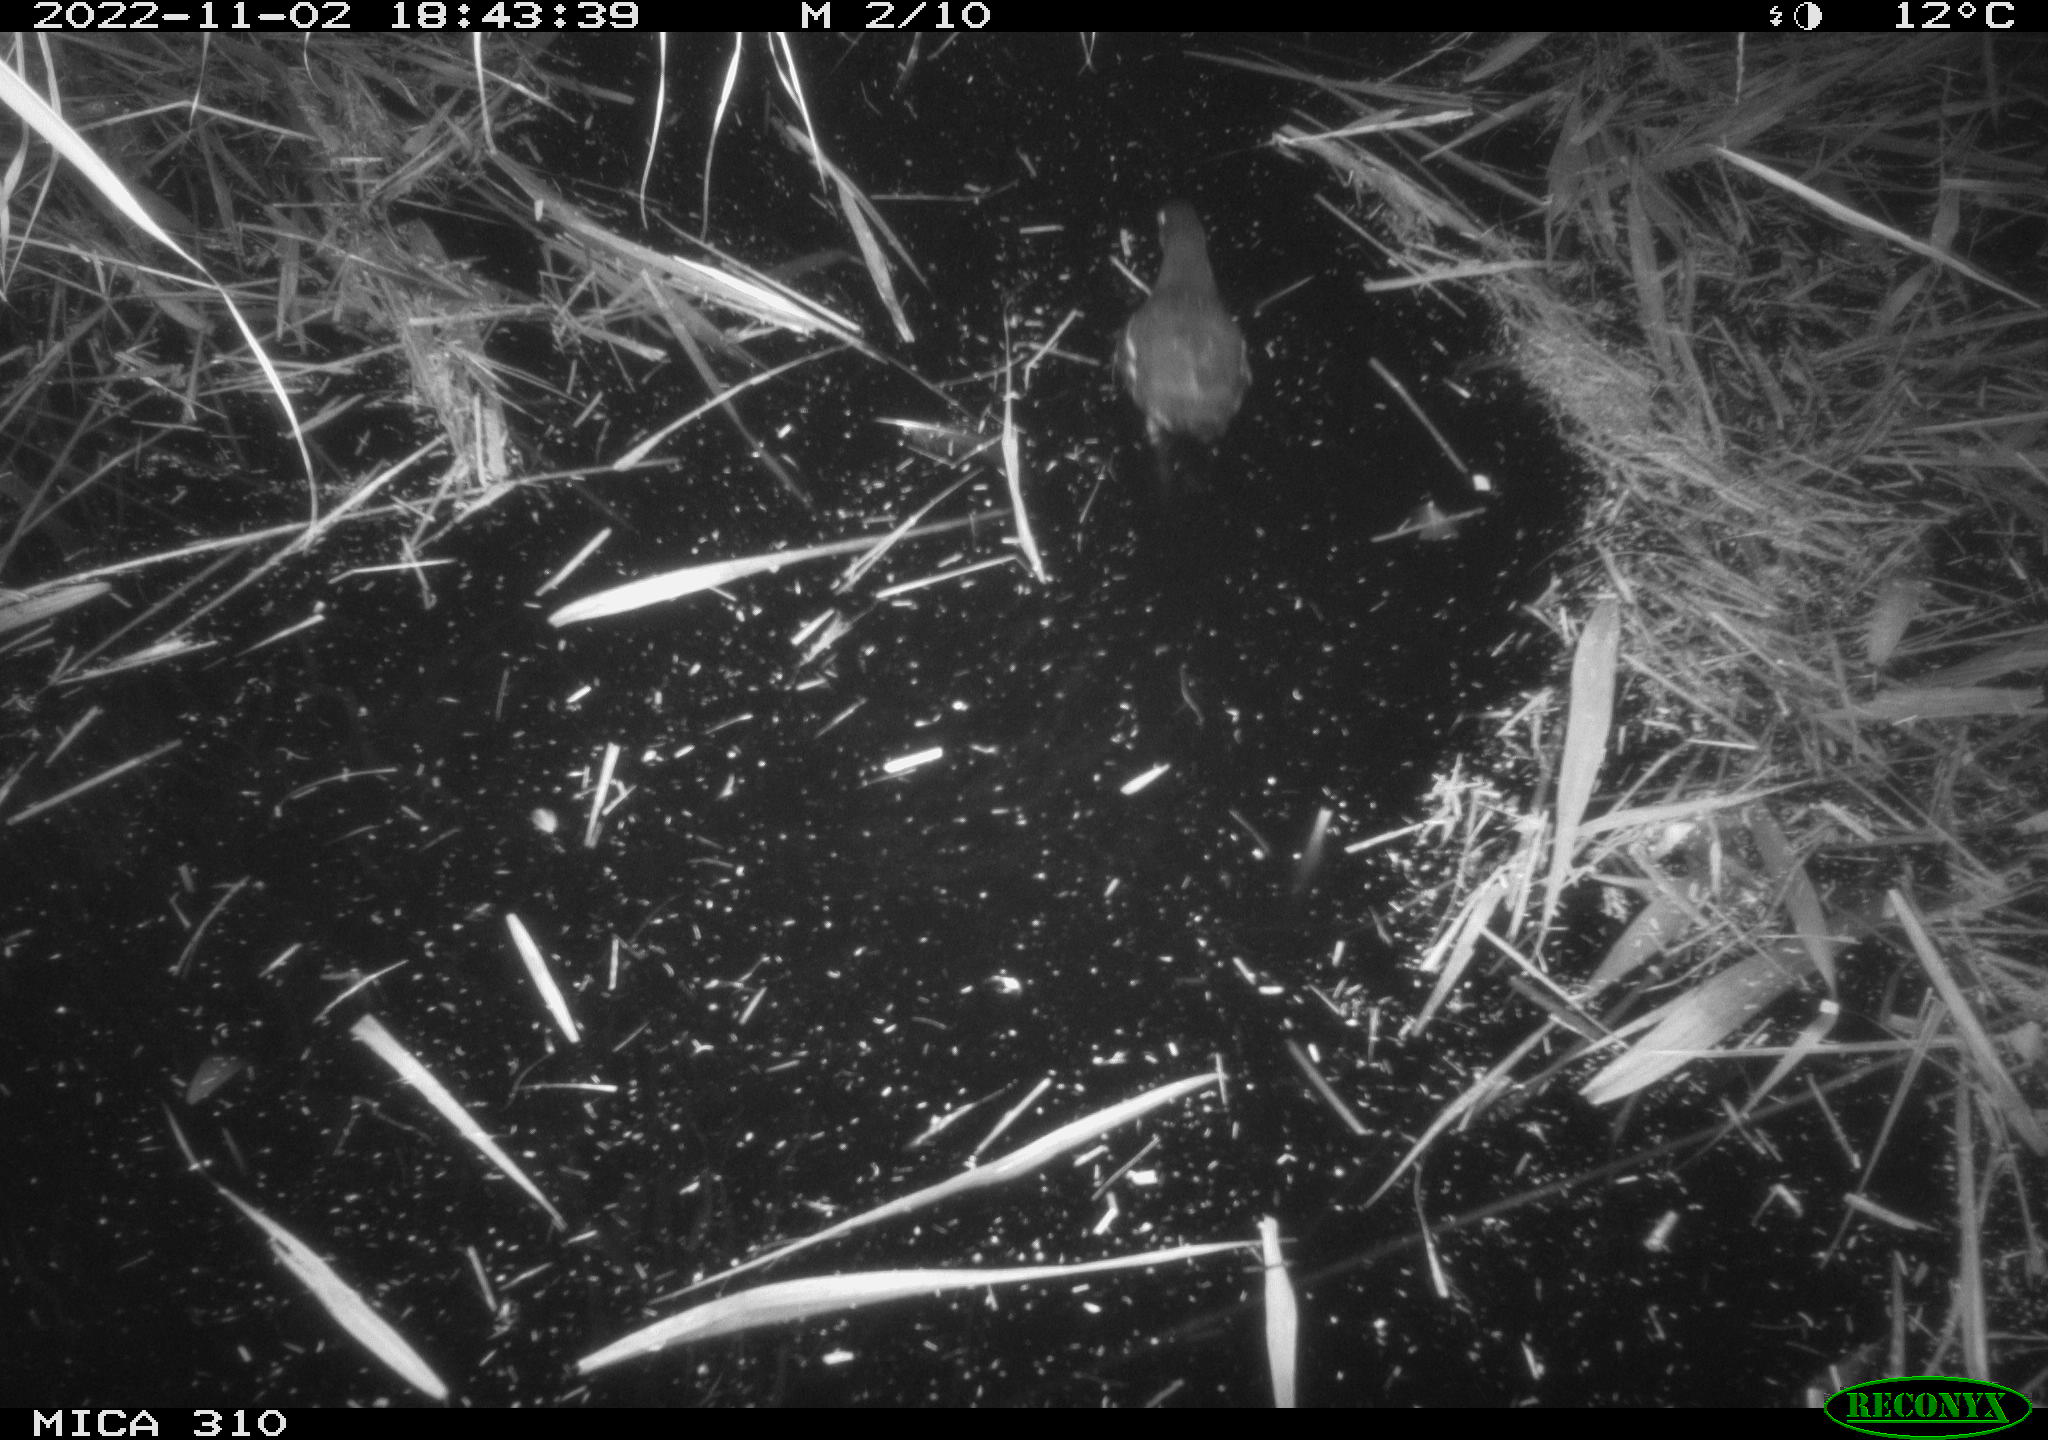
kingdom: Animalia
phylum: Chordata
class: Aves
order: Gruiformes
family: Rallidae
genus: Gallinula
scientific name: Gallinula chloropus
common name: Common moorhen
